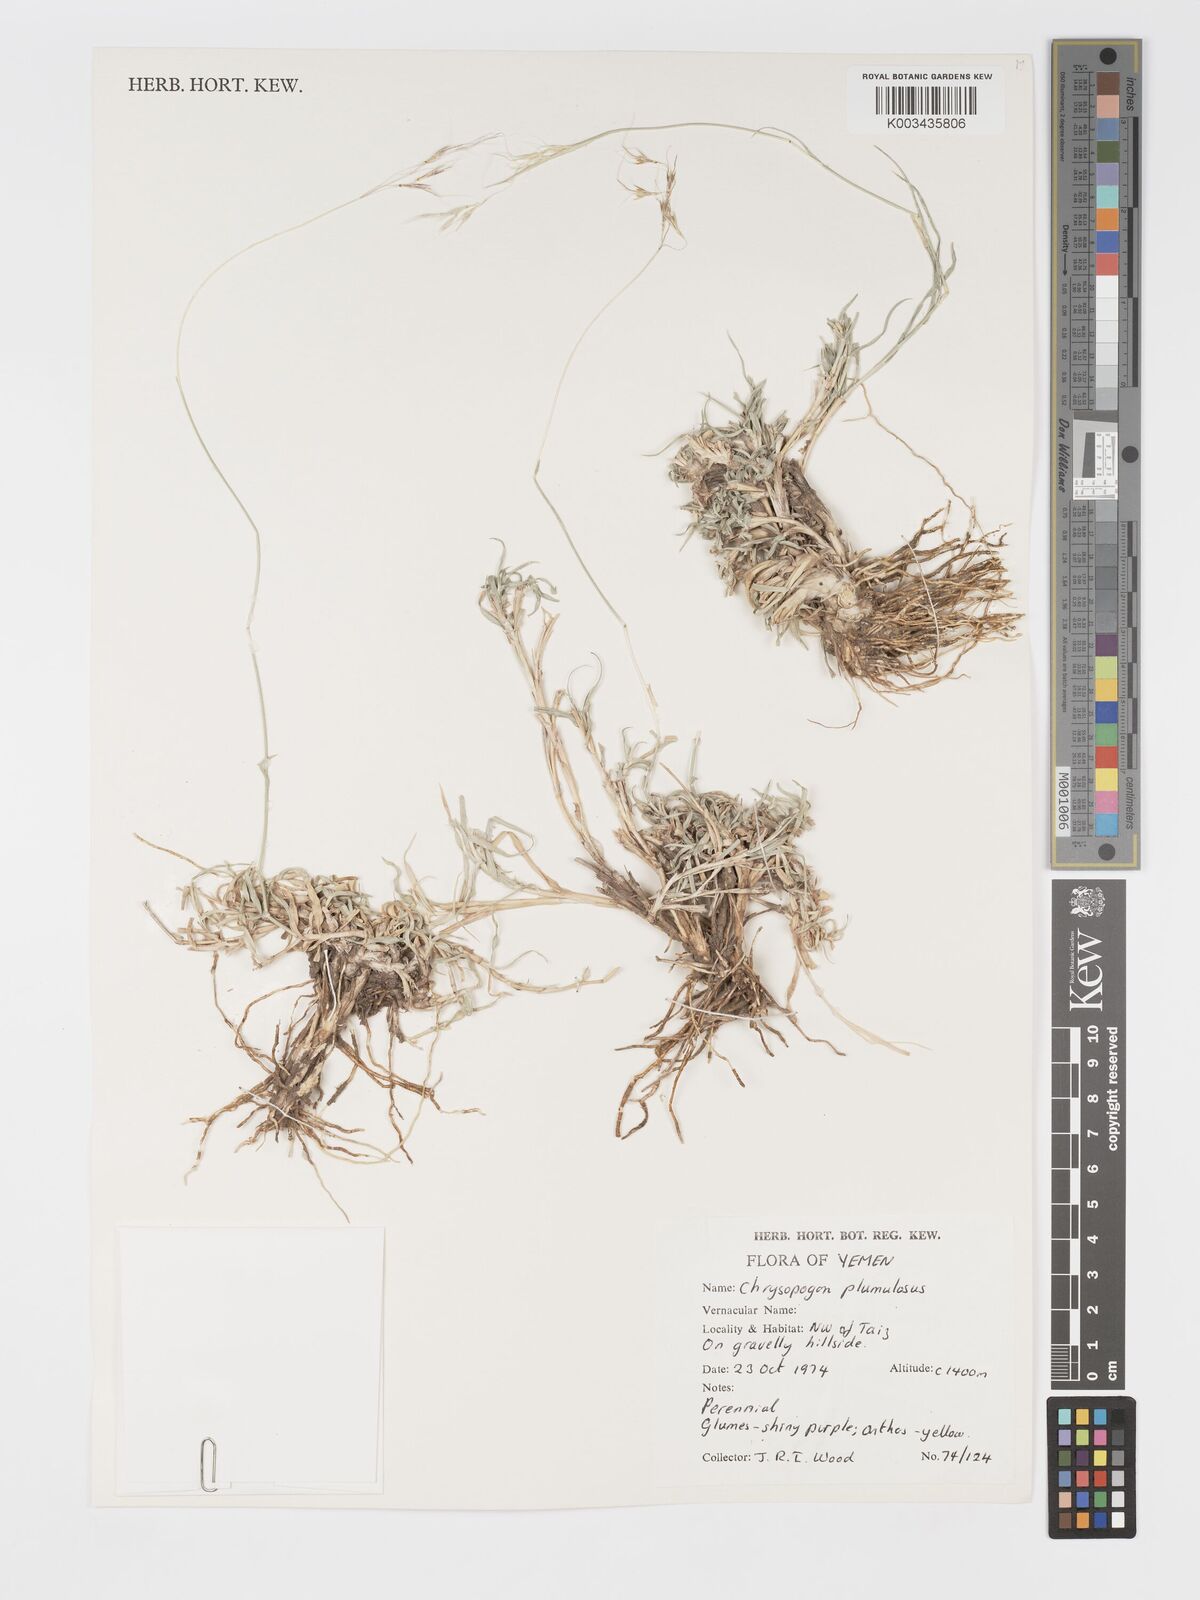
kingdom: Plantae
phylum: Tracheophyta
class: Liliopsida
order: Poales
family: Poaceae
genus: Chrysopogon
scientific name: Chrysopogon plumulosus
